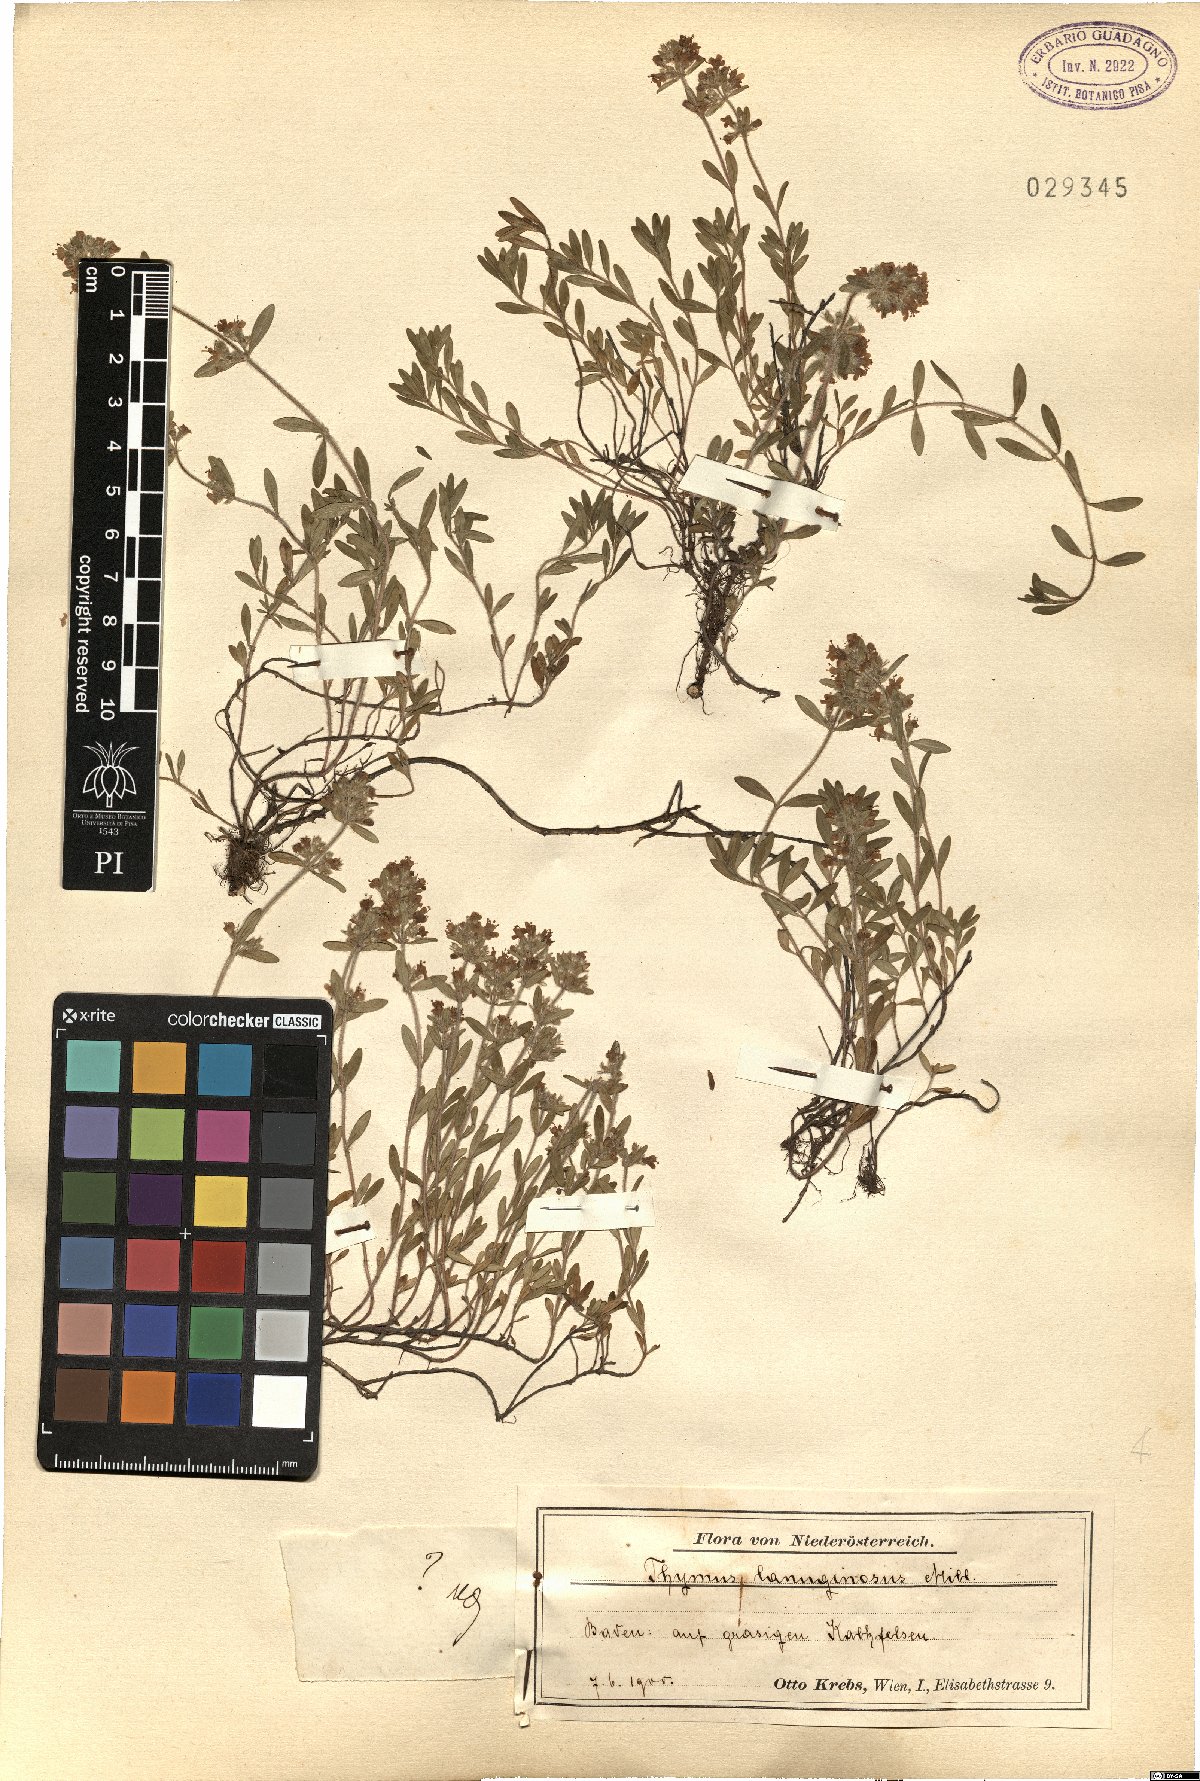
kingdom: Plantae
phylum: Tracheophyta
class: Magnoliopsida
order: Lamiales
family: Lamiaceae
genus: Thymus
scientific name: Thymus pulegioides
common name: Large thyme
